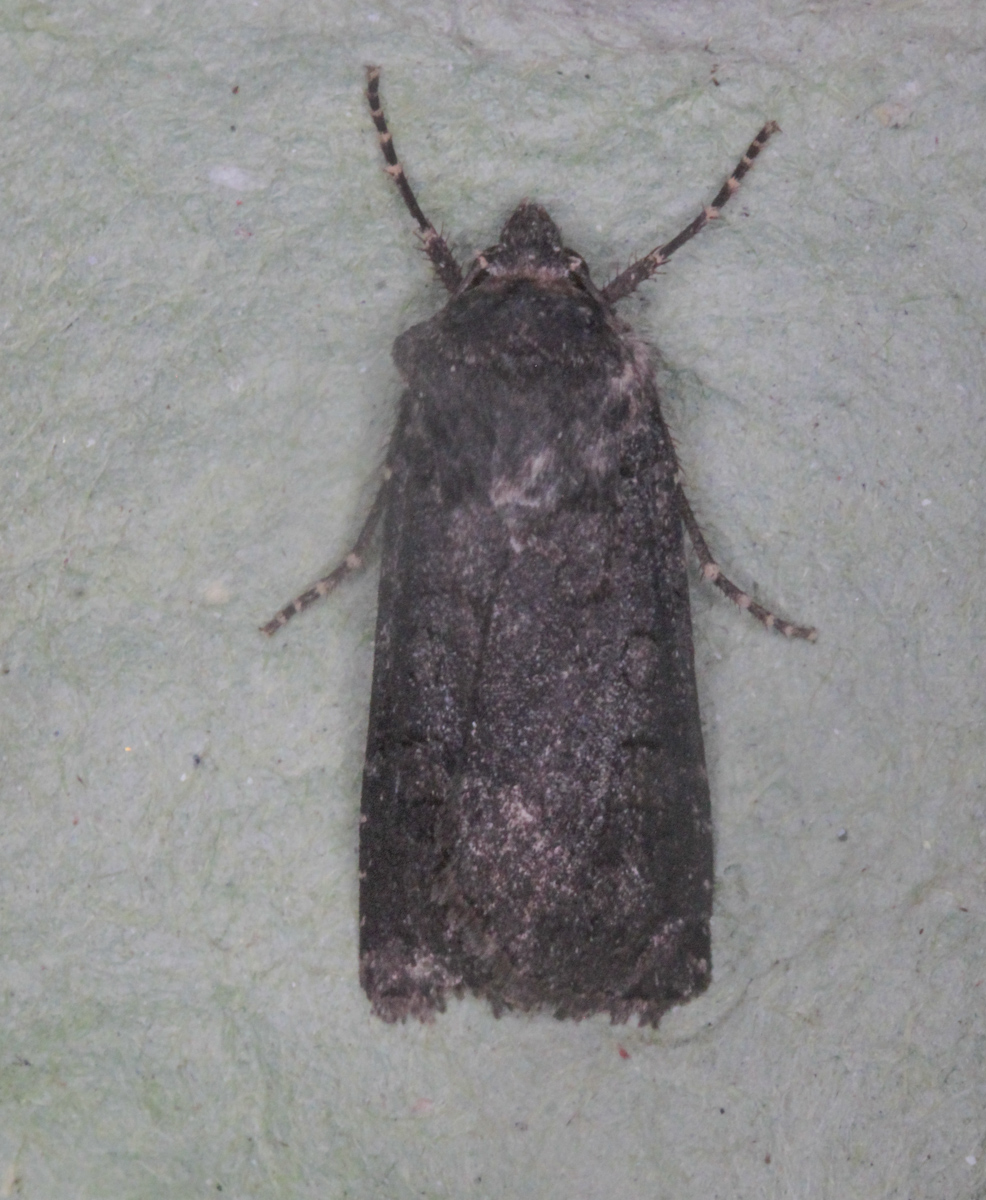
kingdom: Animalia
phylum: Arthropoda
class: Insecta
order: Lepidoptera
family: Noctuidae
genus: Euxoa
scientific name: Euxoa nigricans
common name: Garden dart
